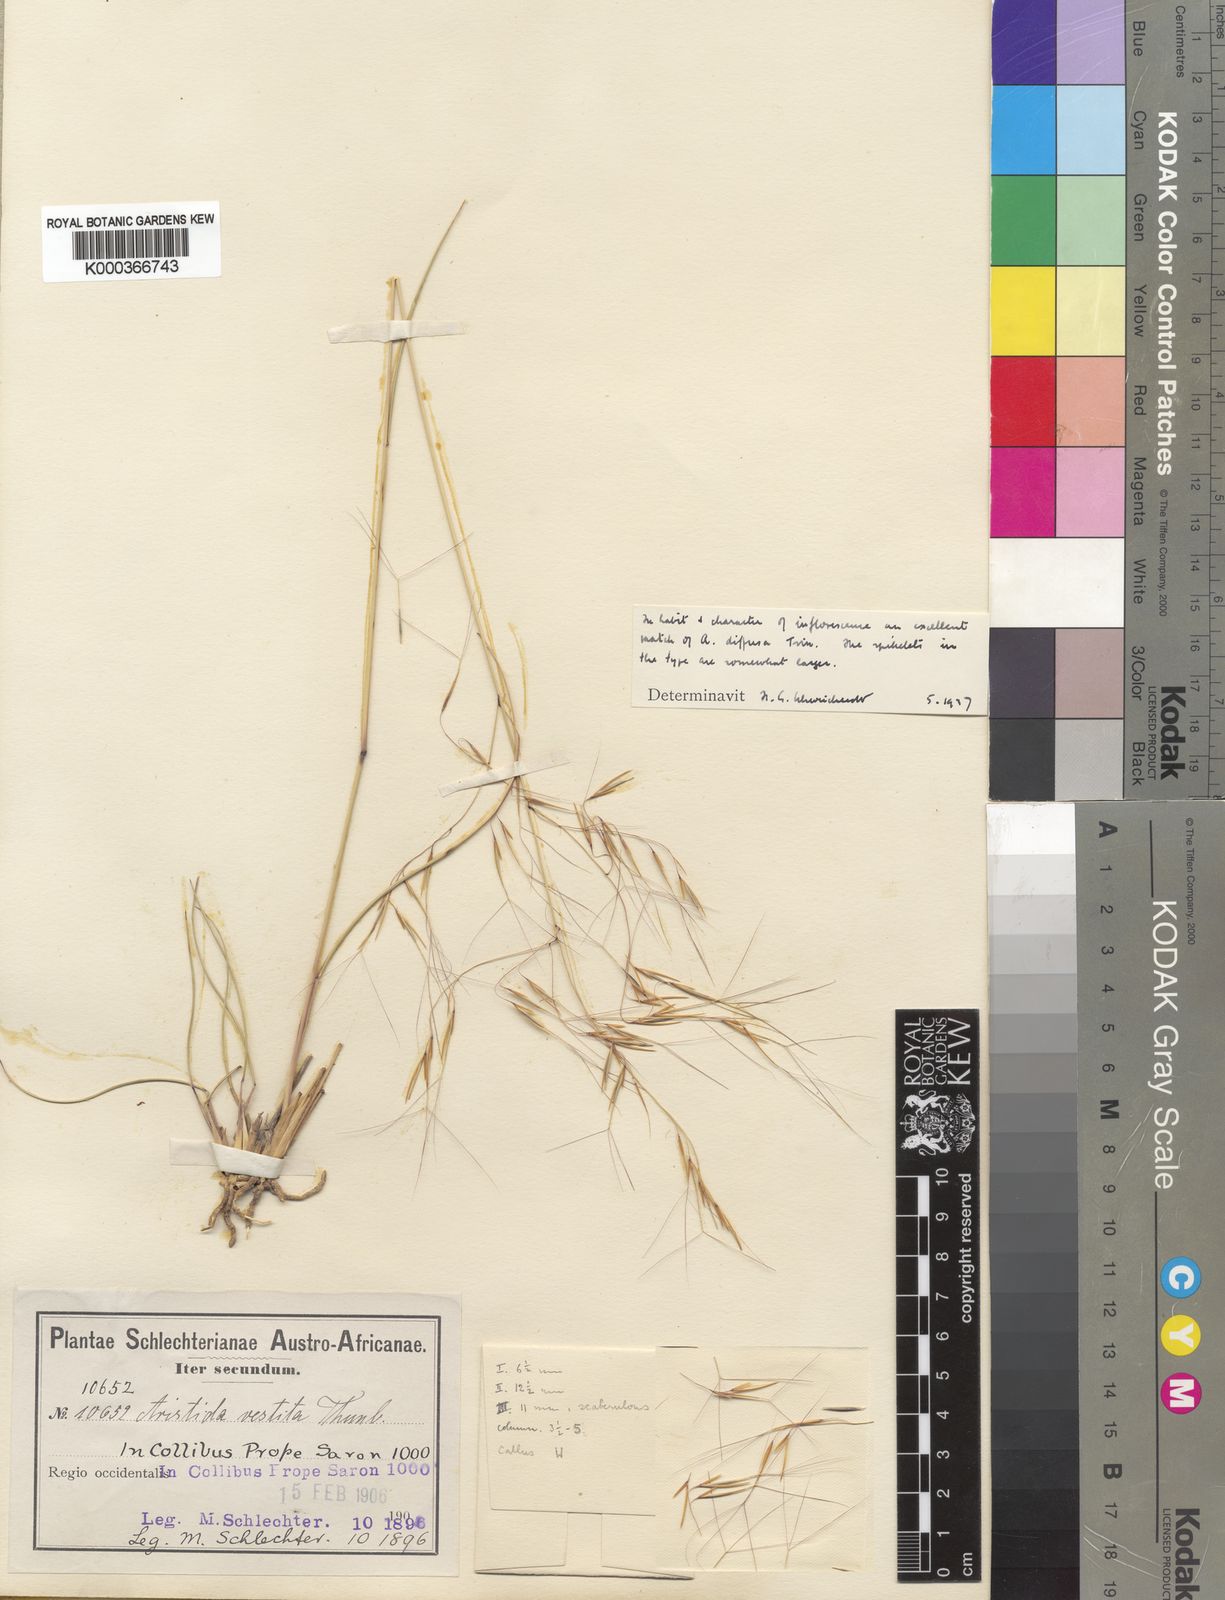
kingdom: Plantae
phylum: Tracheophyta
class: Liliopsida
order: Poales
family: Poaceae
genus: Aristida
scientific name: Aristida diffusa
